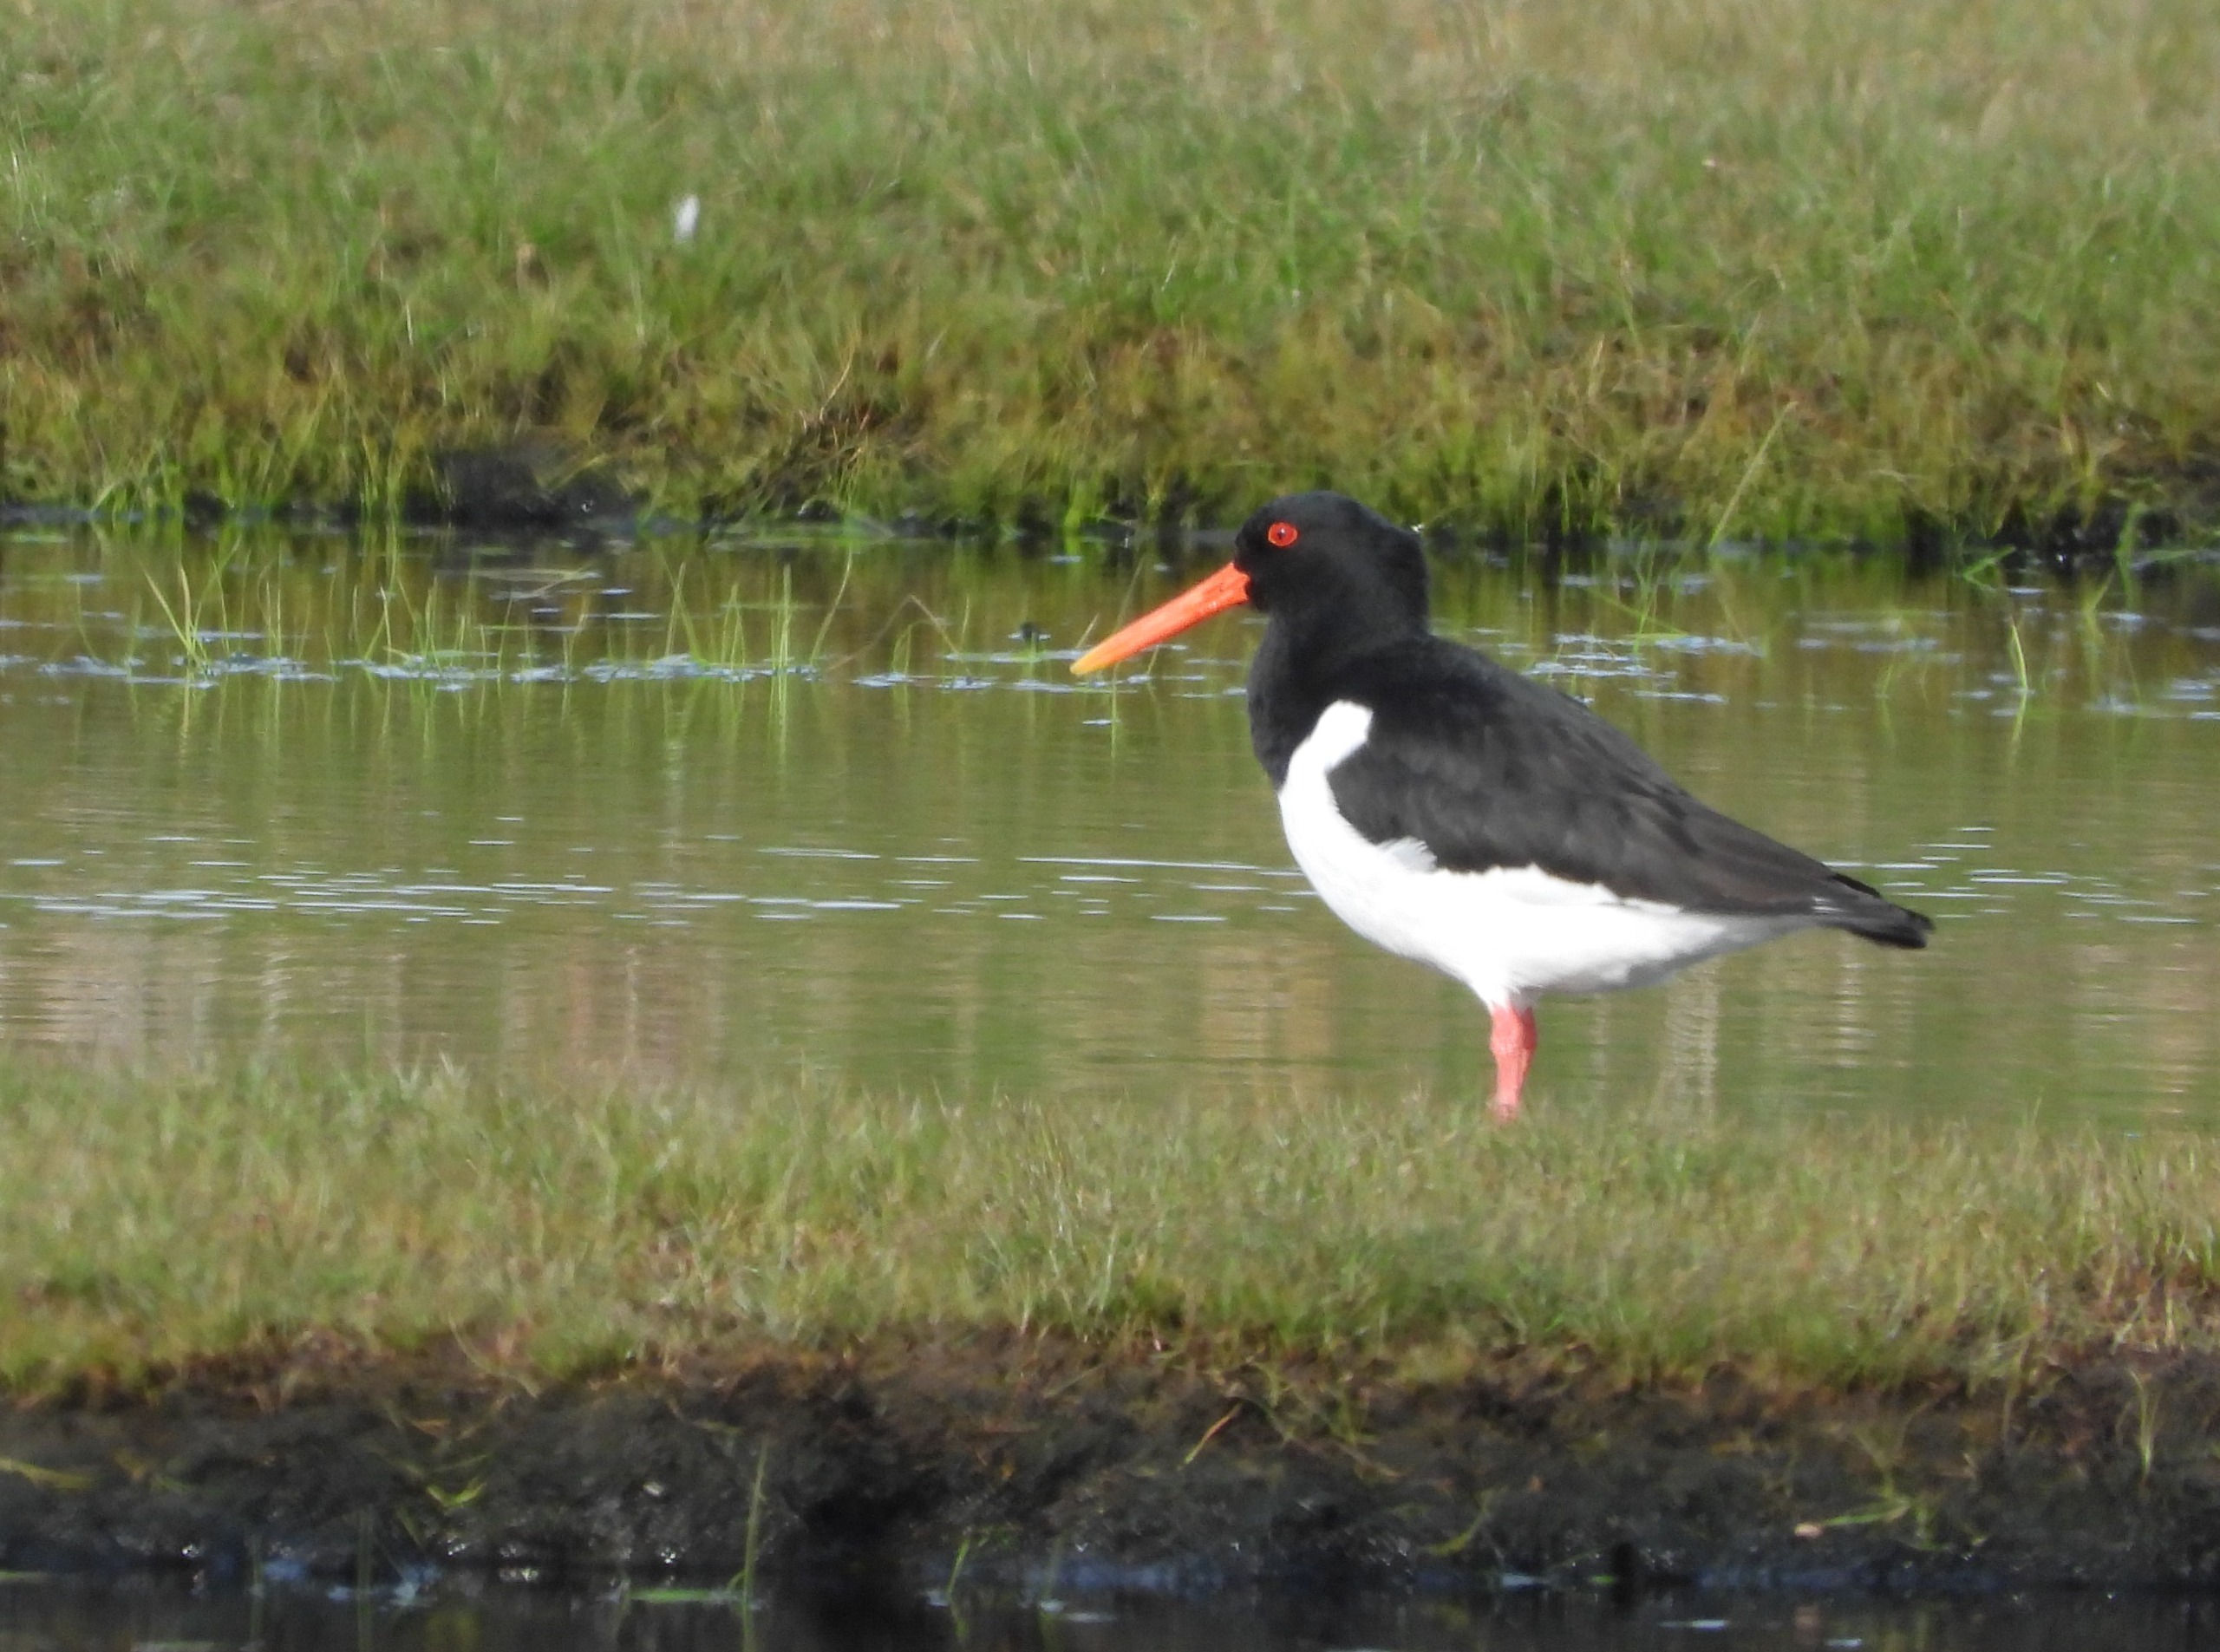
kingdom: Animalia
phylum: Chordata
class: Aves
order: Charadriiformes
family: Haematopodidae
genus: Haematopus
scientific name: Haematopus ostralegus
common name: Strandskade
